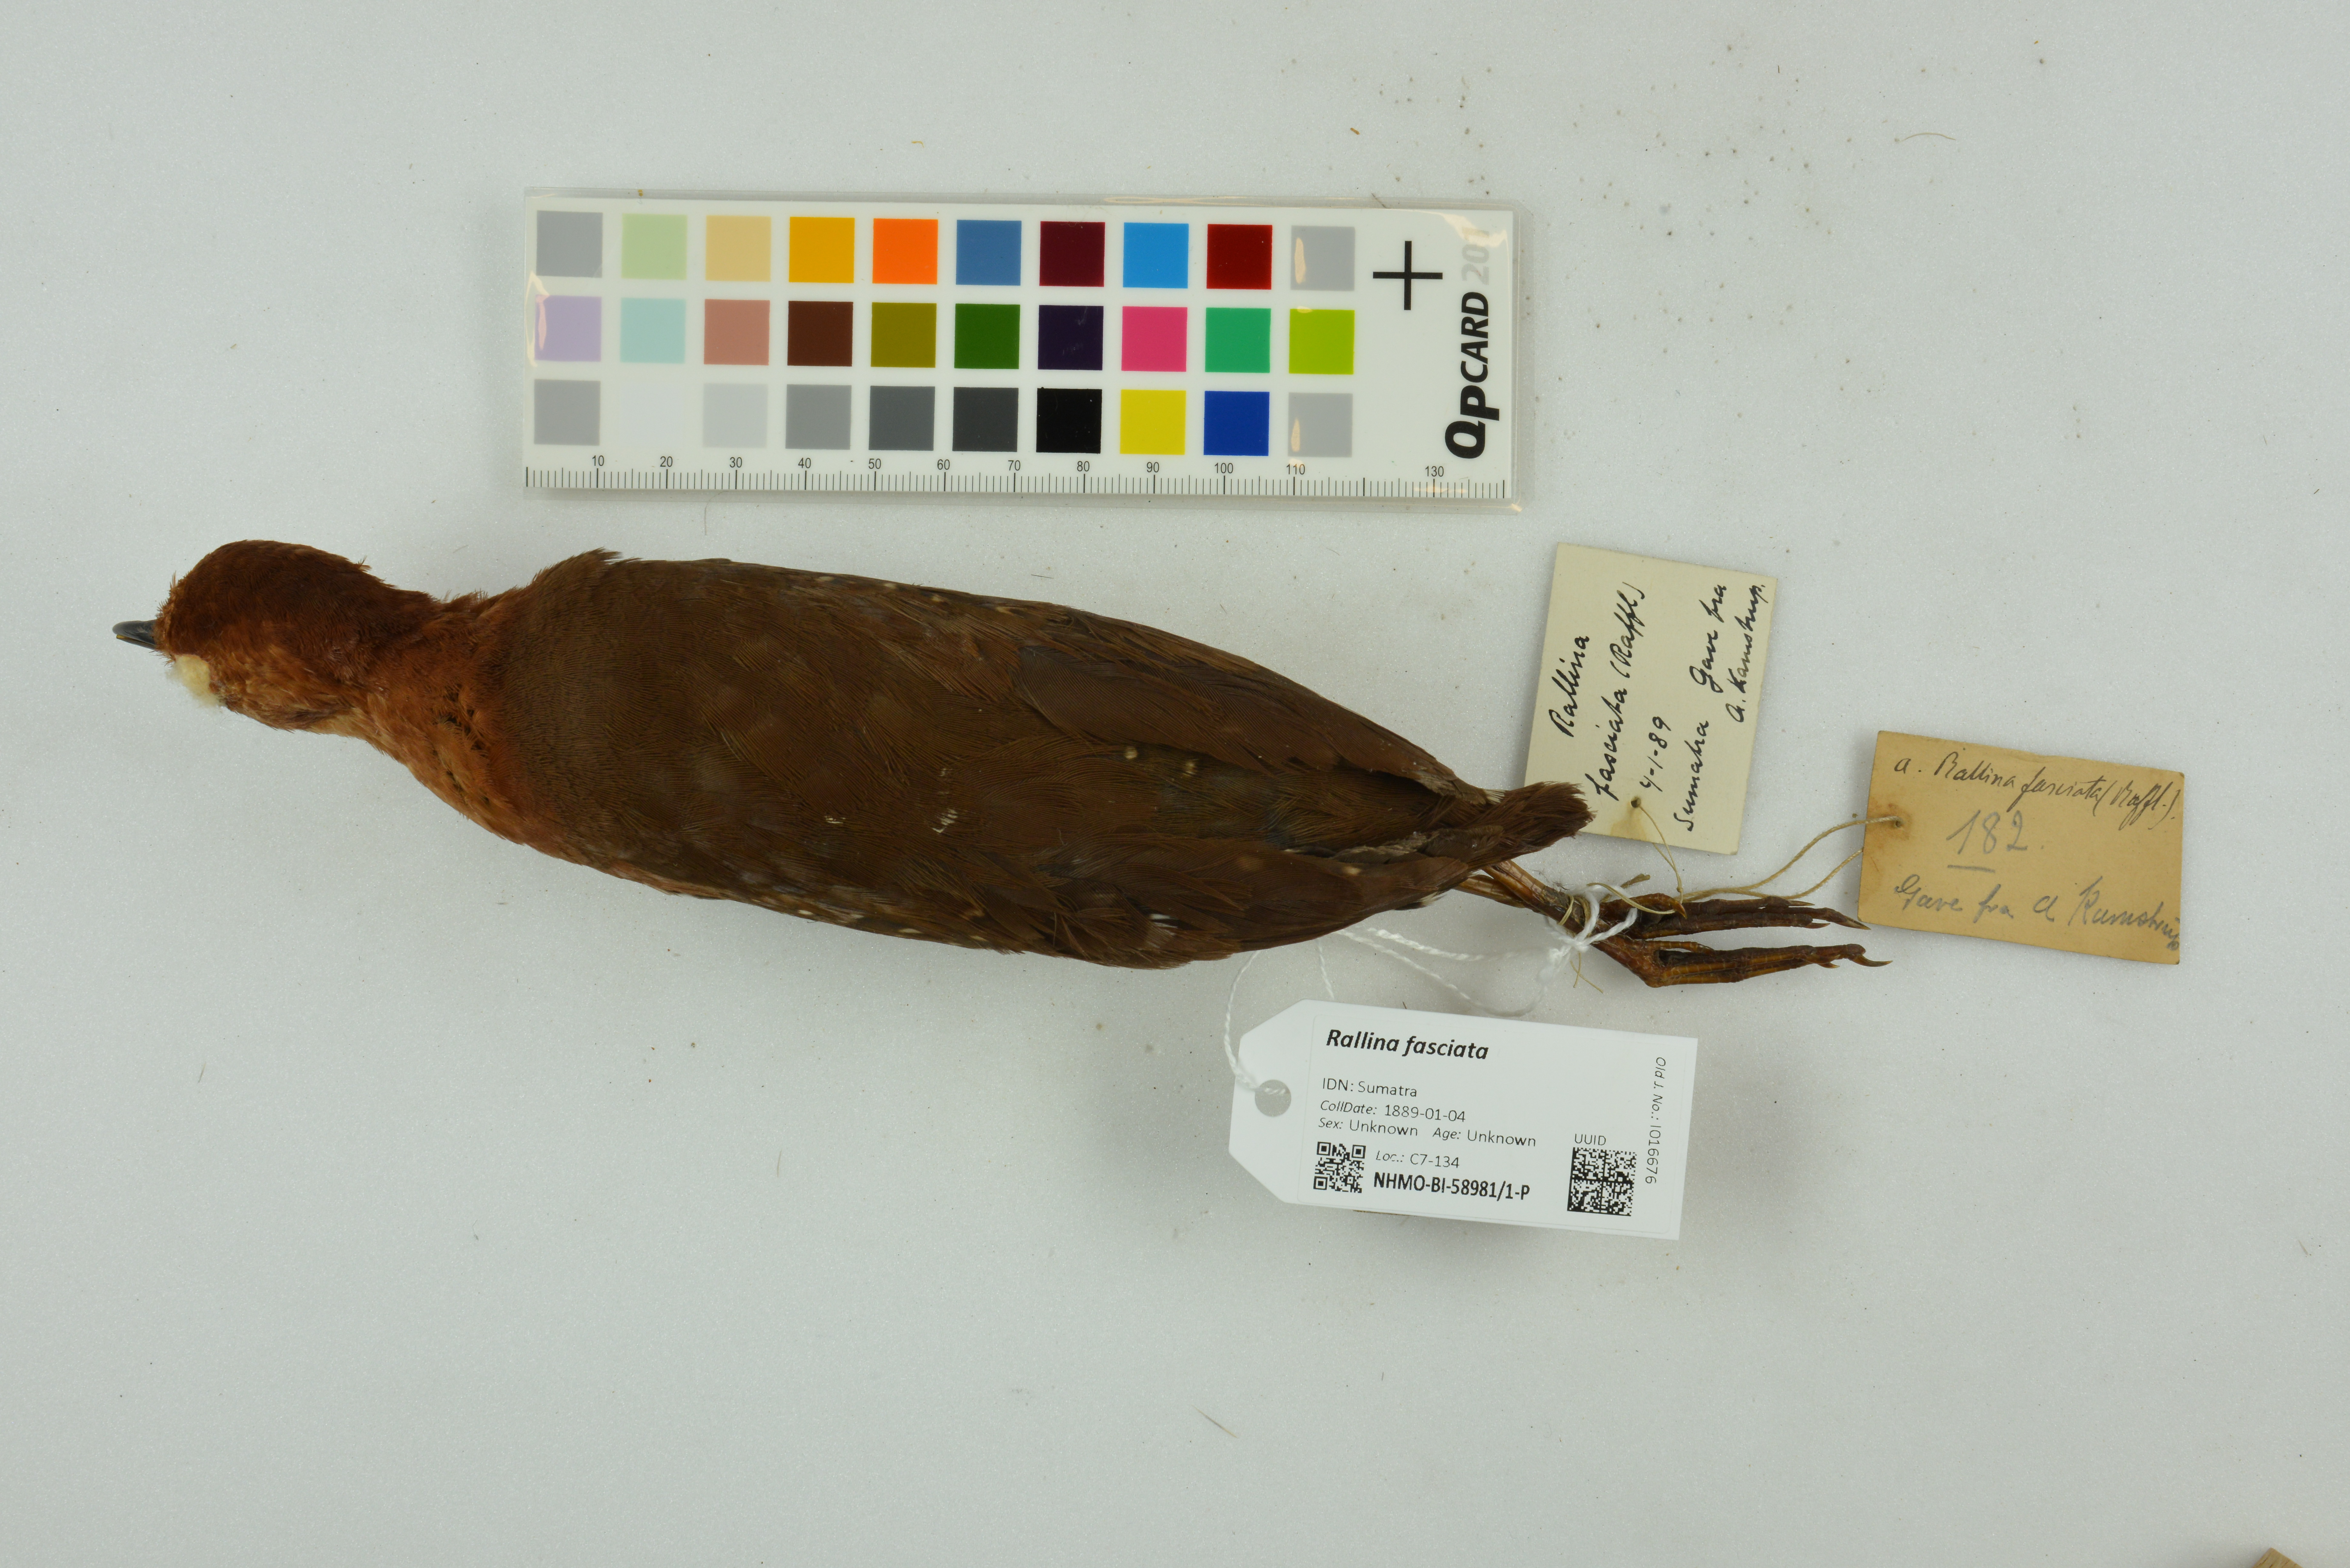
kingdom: Animalia
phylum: Chordata
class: Aves
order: Gruiformes
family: Rallidae
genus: Rallina
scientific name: Rallina fasciata
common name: Red-legged crake
